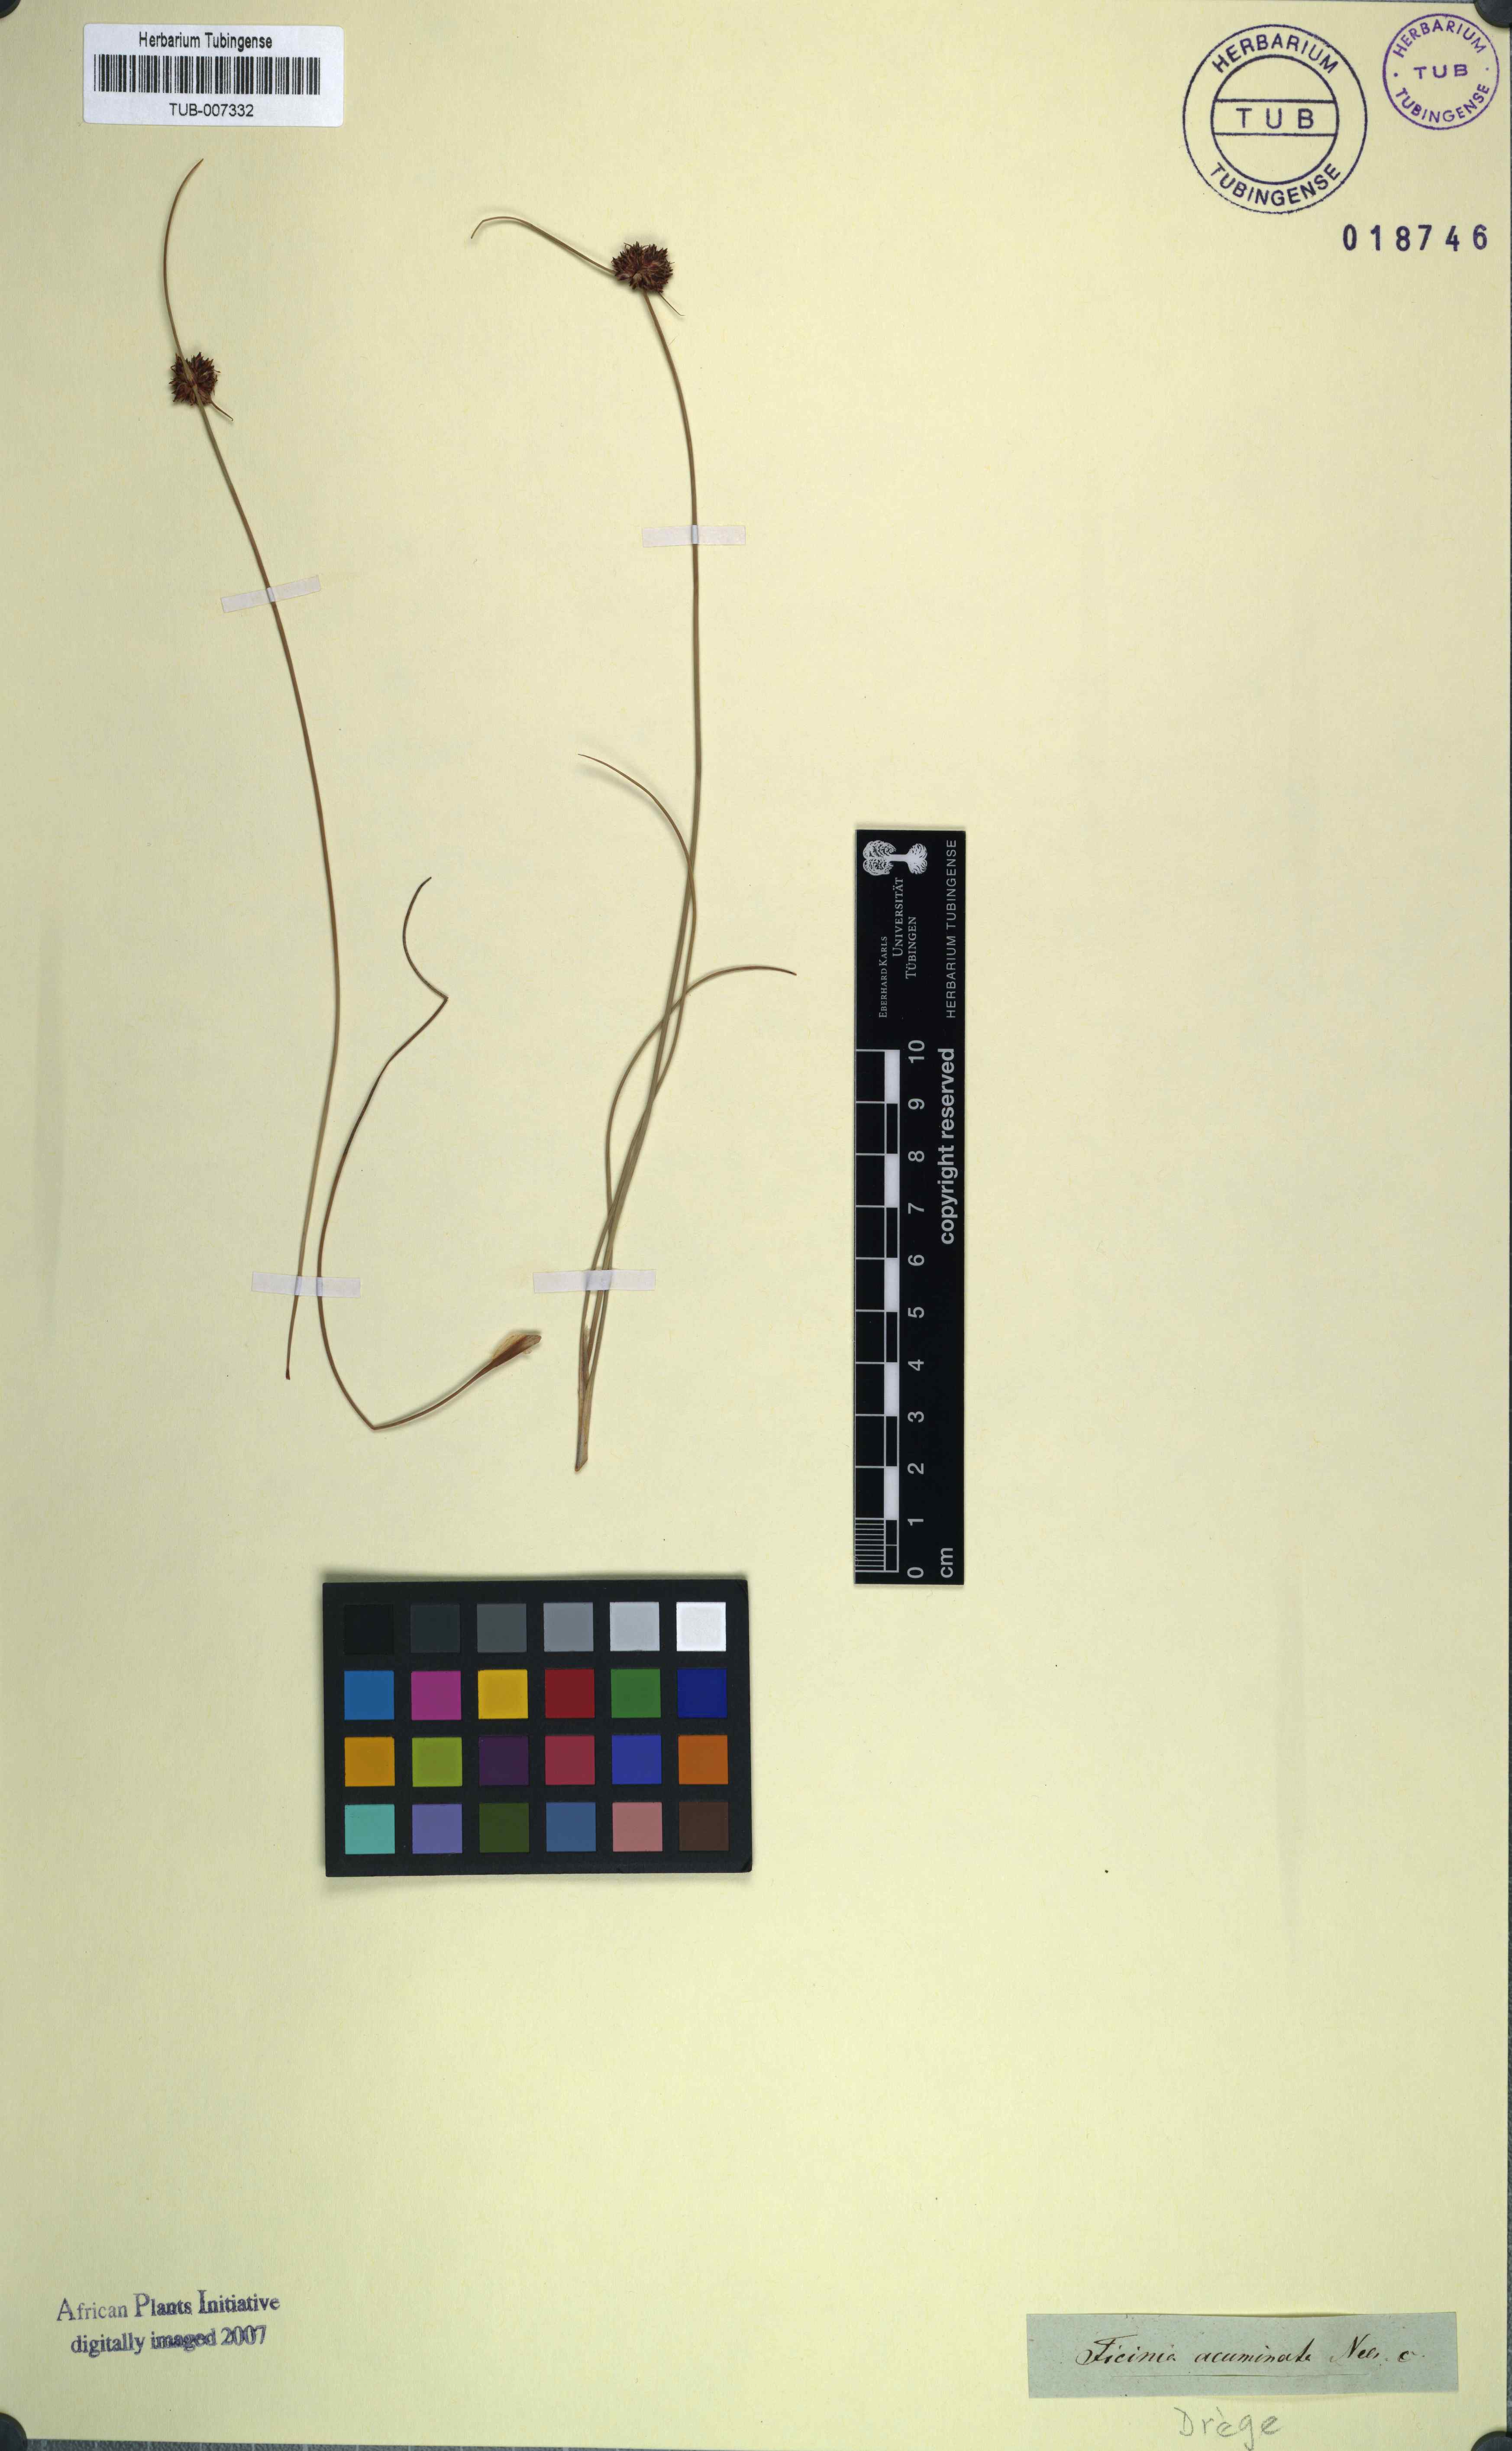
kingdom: Plantae
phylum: Tracheophyta
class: Liliopsida
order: Poales
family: Cyperaceae
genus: Ficinia
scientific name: Ficinia acuminata
